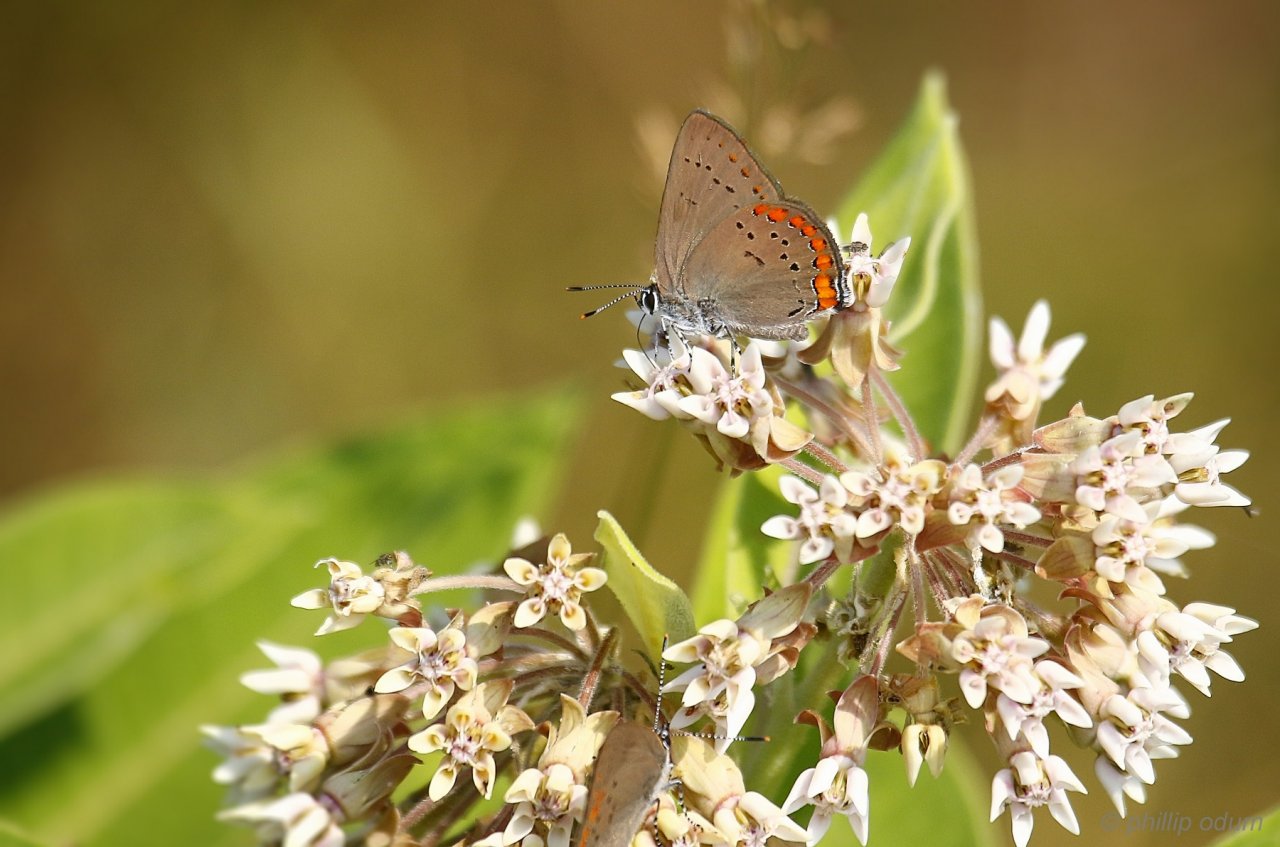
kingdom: Animalia
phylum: Arthropoda
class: Insecta
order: Lepidoptera
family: Lycaenidae
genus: Harkenclenus
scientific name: Harkenclenus titus
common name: Coral Hairstreak
